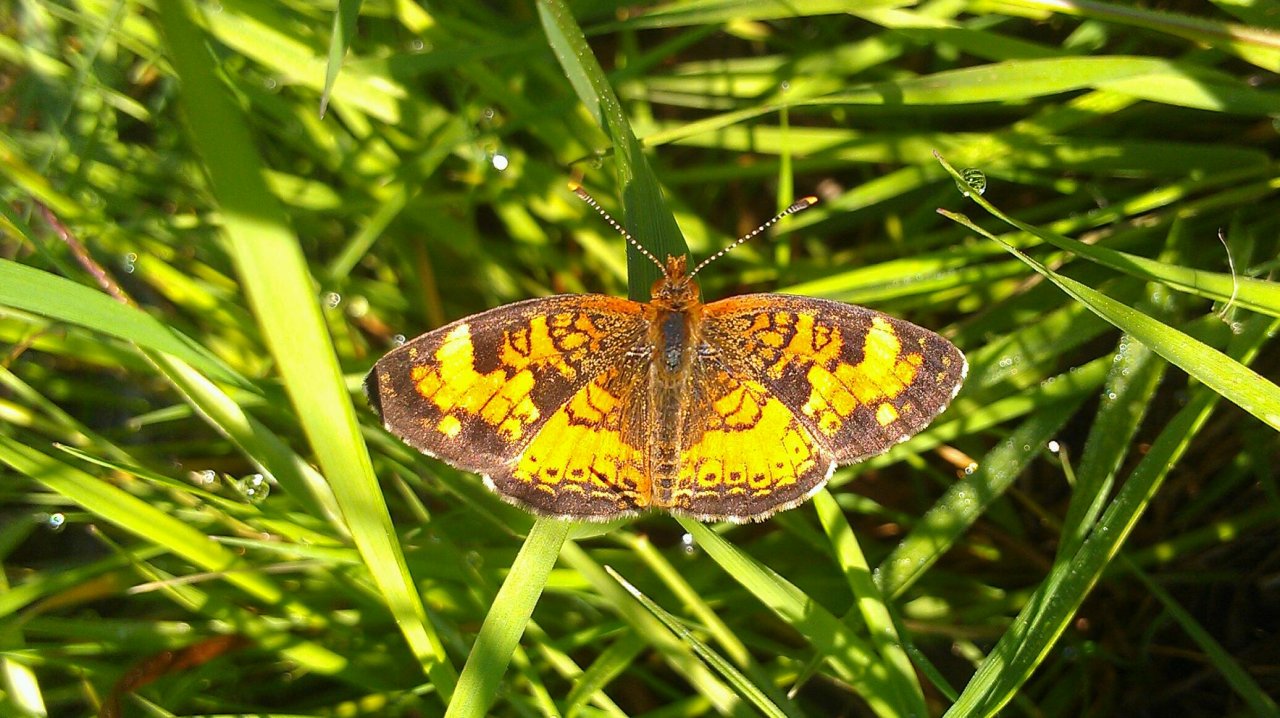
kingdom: Animalia
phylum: Arthropoda
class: Insecta
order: Lepidoptera
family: Nymphalidae
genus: Phyciodes
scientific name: Phyciodes tharos
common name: Northern Crescent
